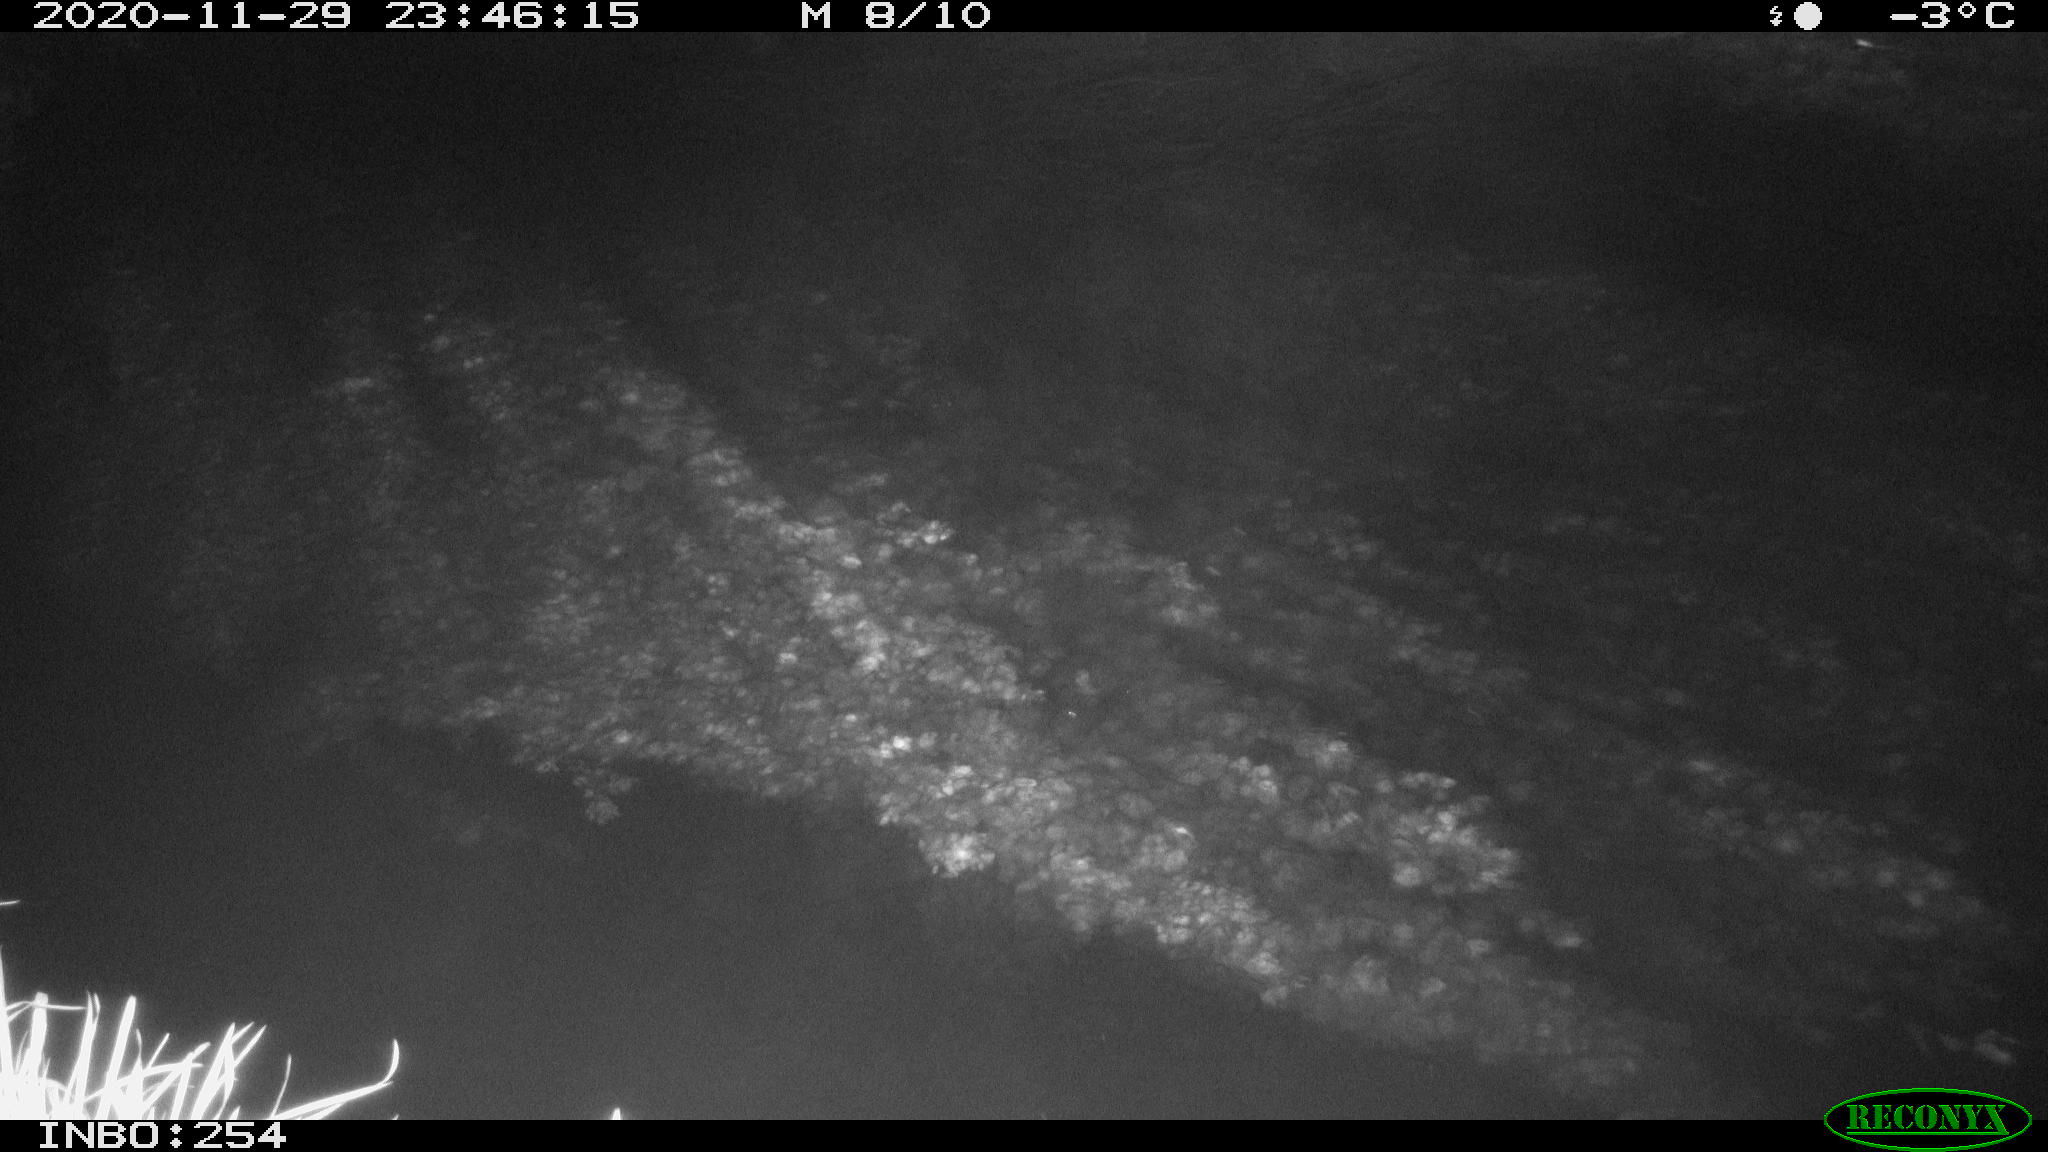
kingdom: Animalia
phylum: Chordata
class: Aves
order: Anseriformes
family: Anatidae
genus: Anas
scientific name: Anas platyrhynchos
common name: Mallard
